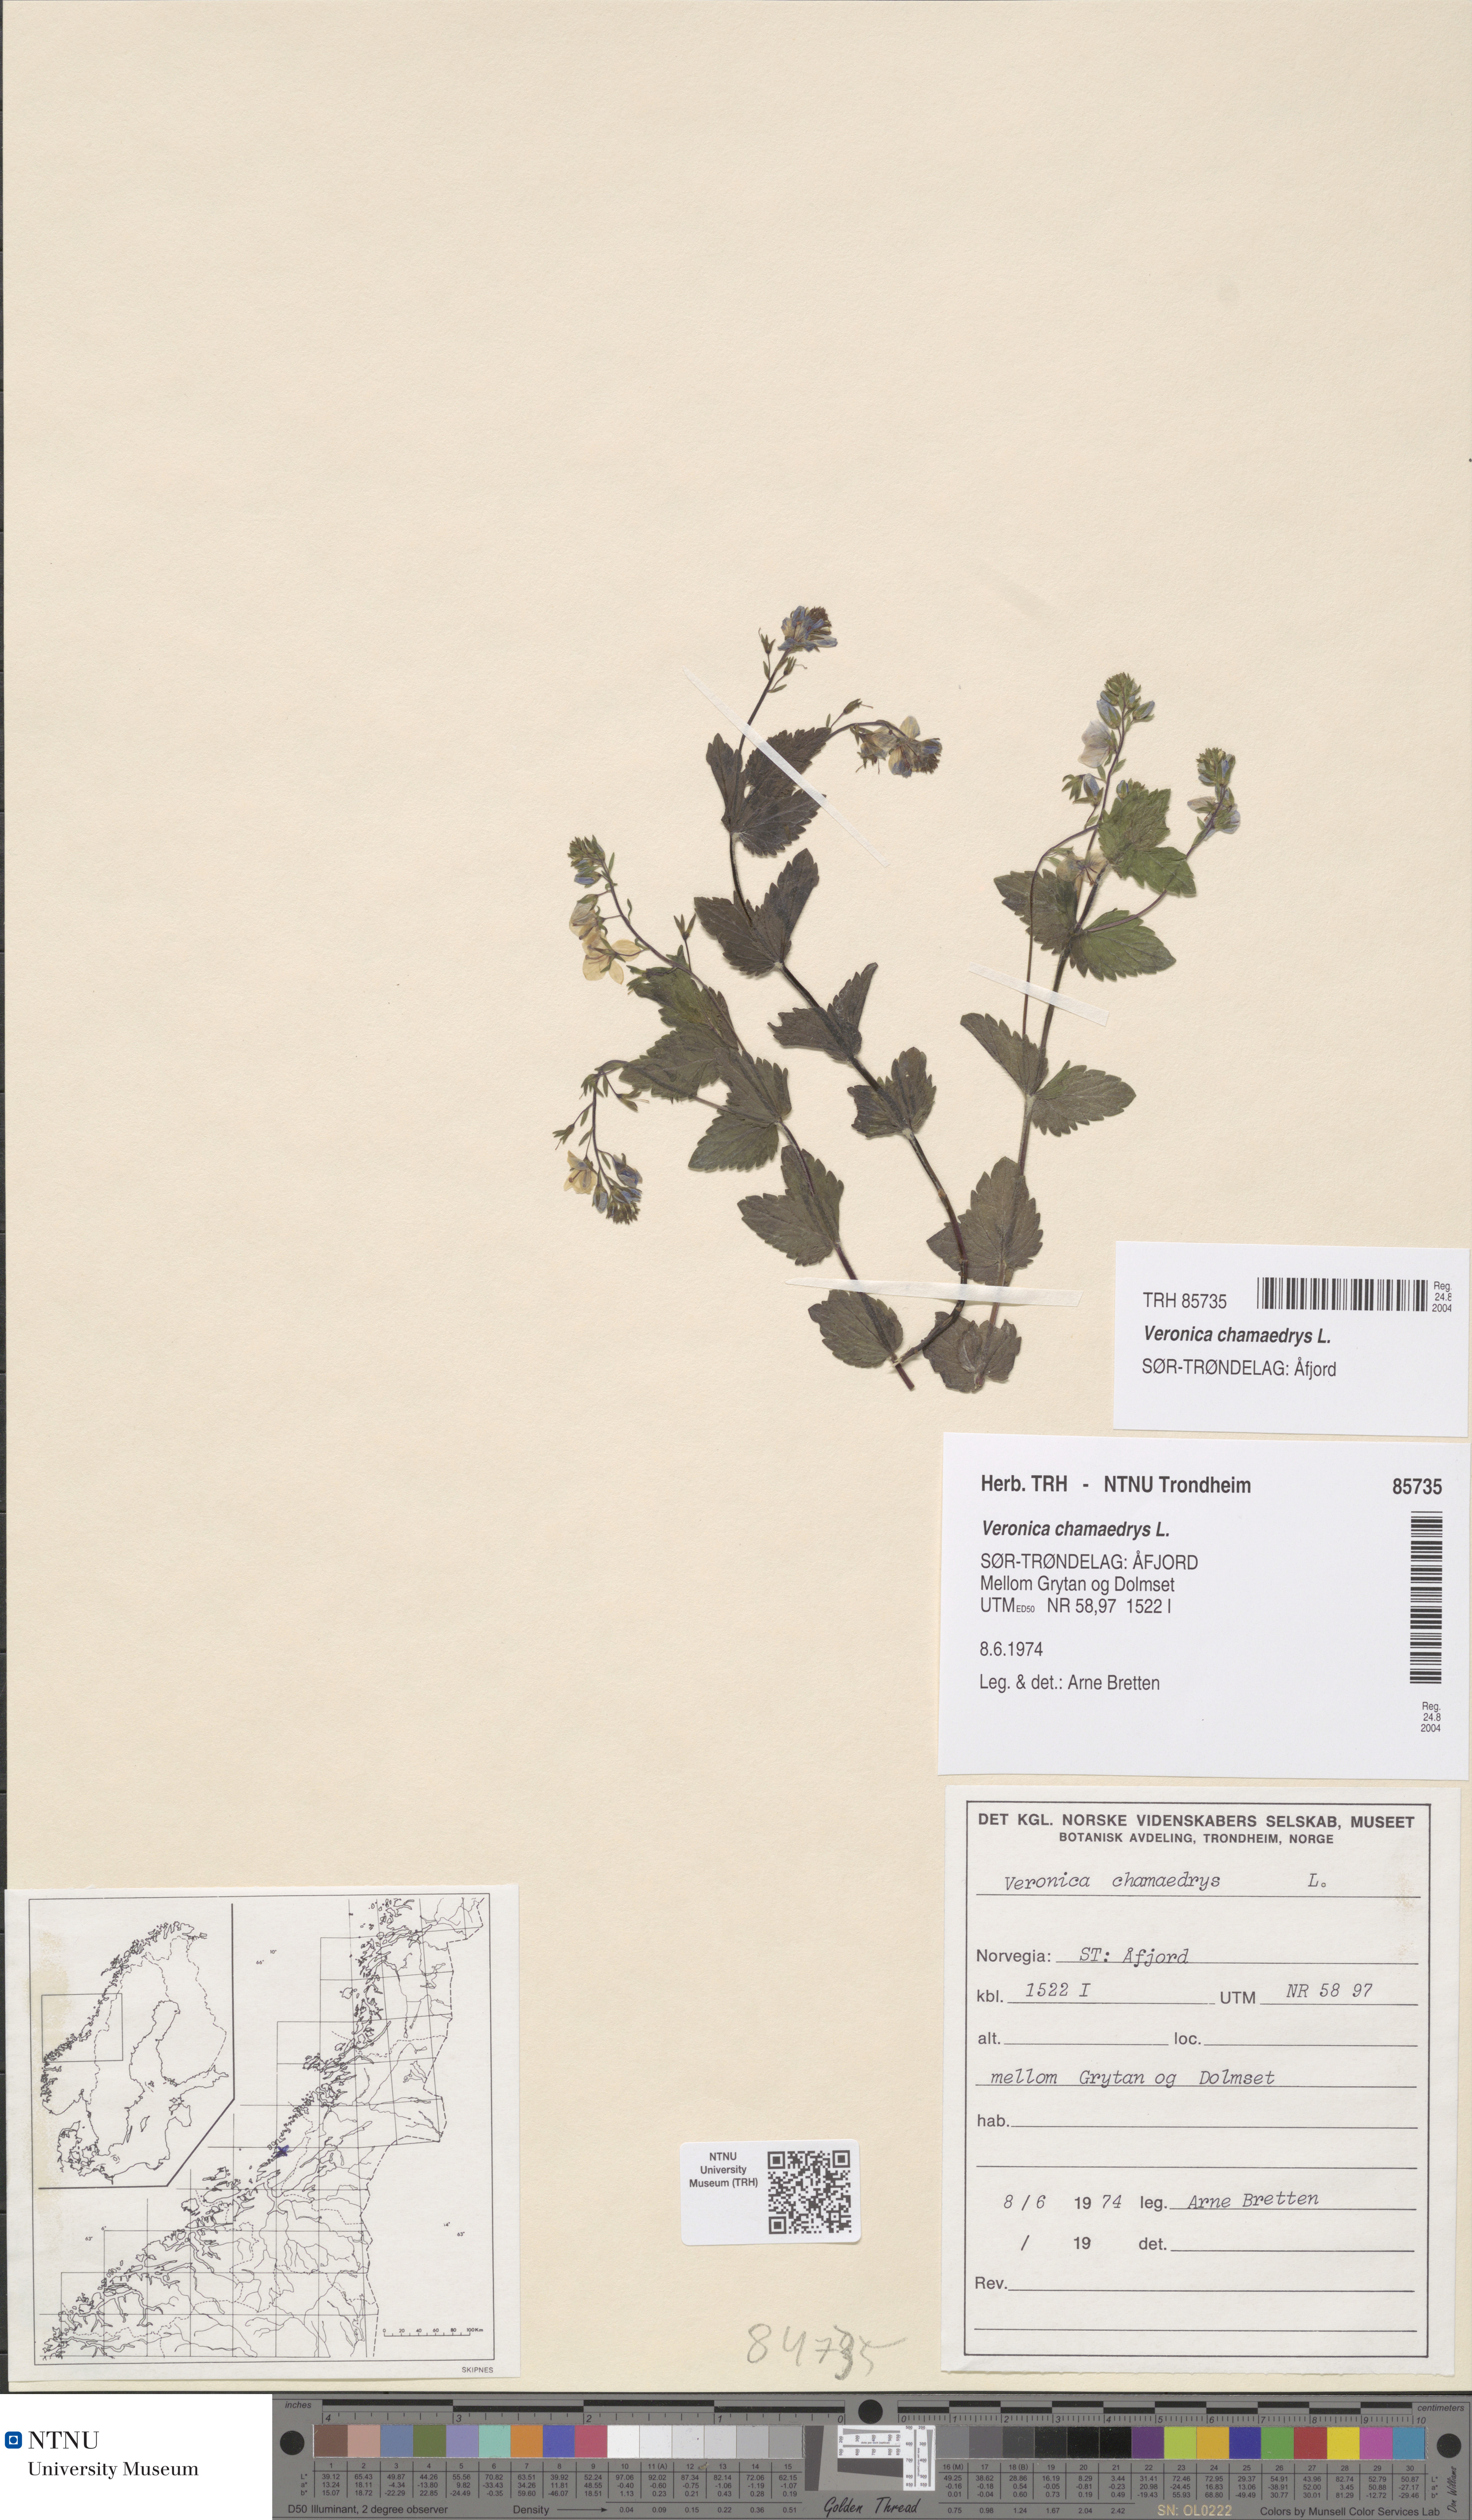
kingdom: Plantae
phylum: Tracheophyta
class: Magnoliopsida
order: Lamiales
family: Plantaginaceae
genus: Veronica
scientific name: Veronica chamaedrys
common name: Germander speedwell
